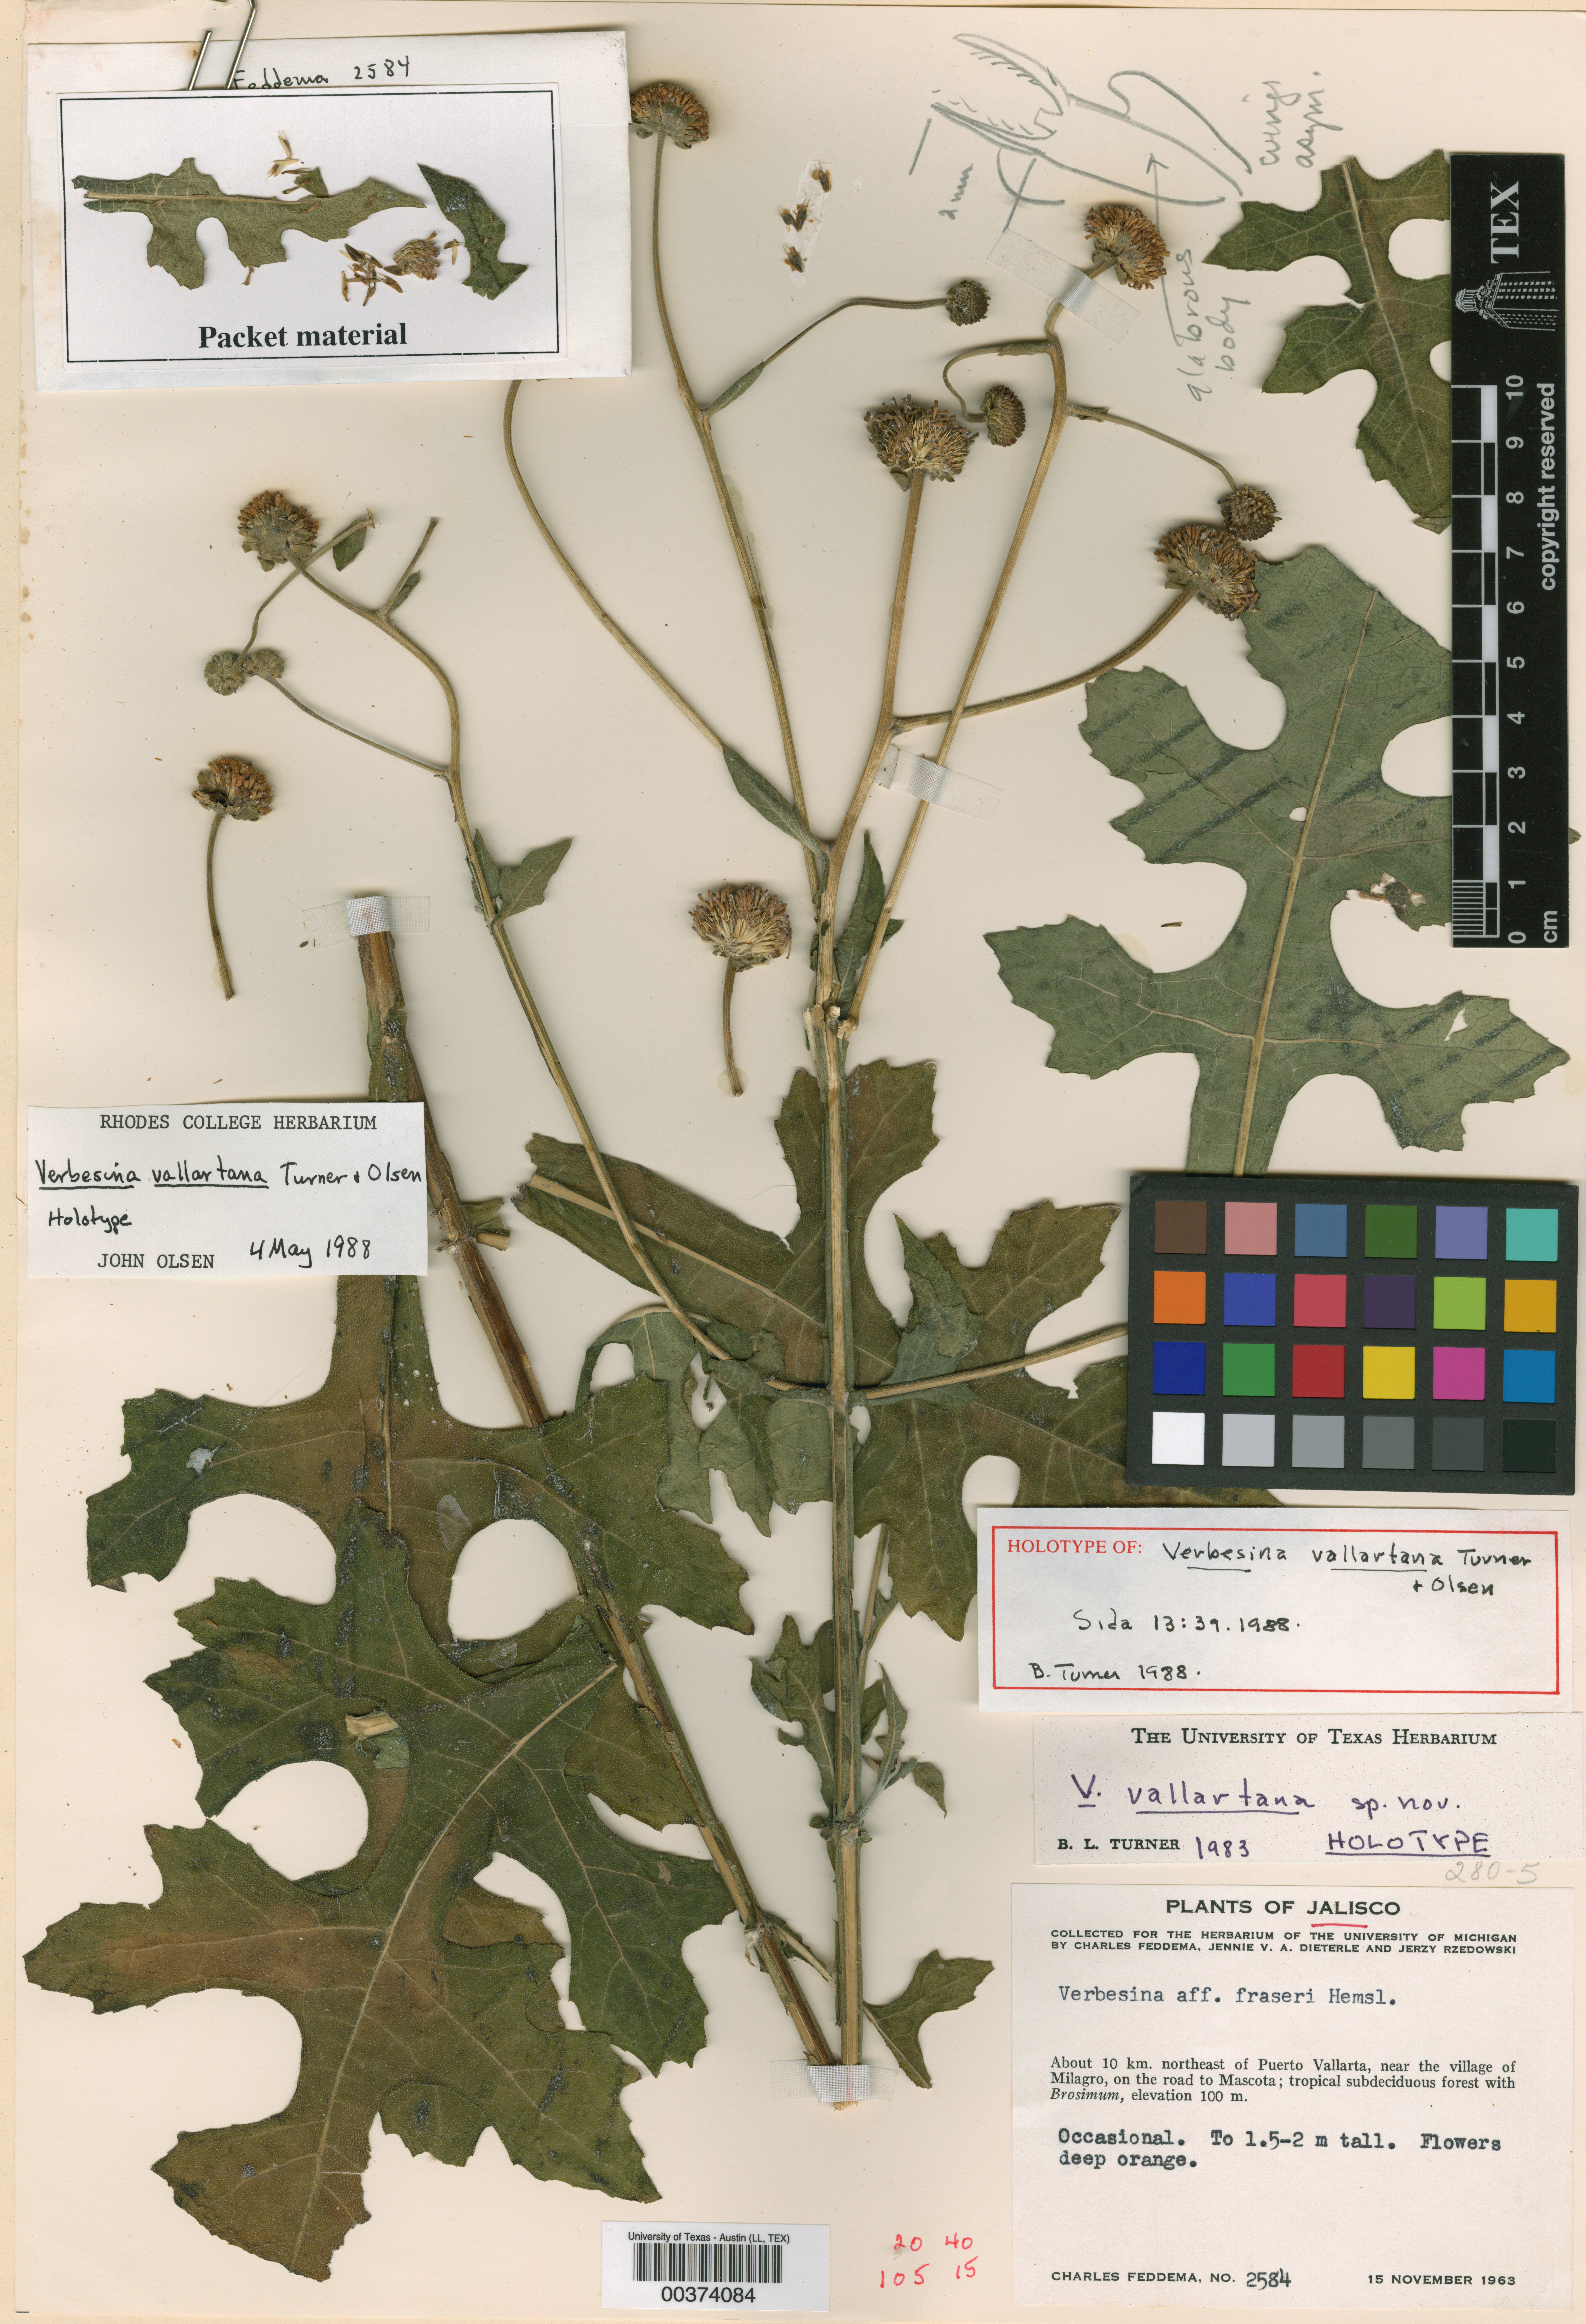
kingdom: Plantae
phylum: Tracheophyta
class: Magnoliopsida
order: Asterales
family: Asteraceae
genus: Verbesina
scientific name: Verbesina vallartana
